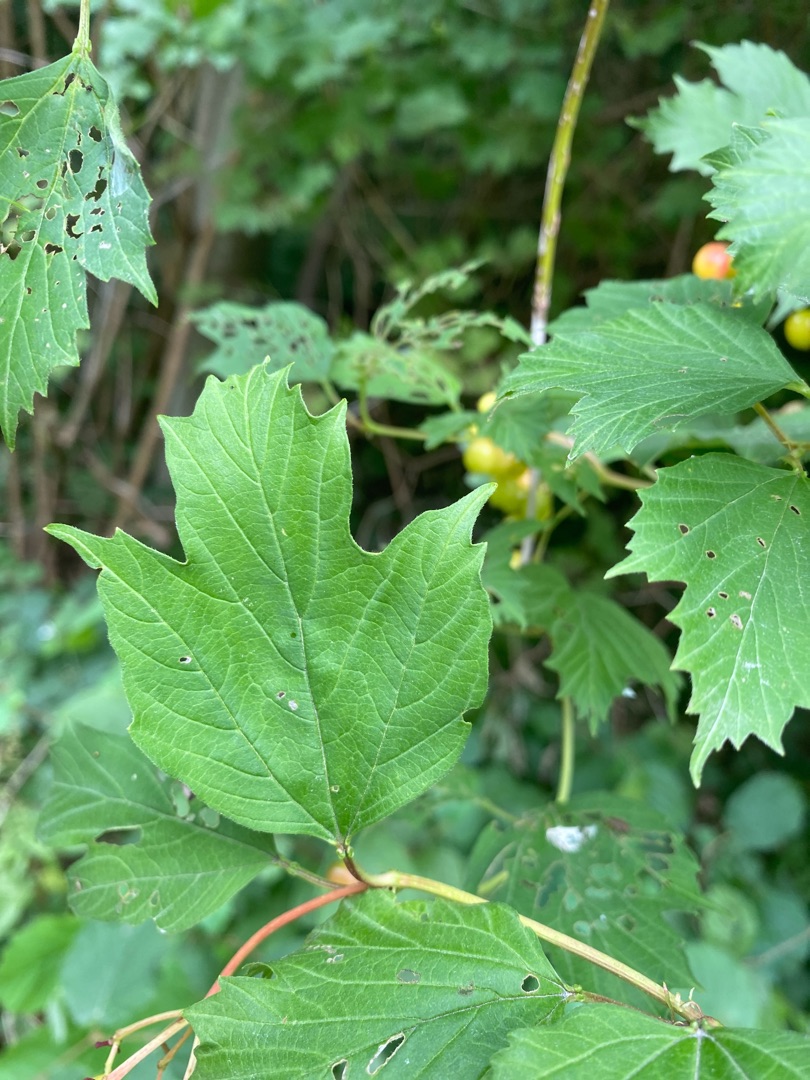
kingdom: Plantae
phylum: Tracheophyta
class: Magnoliopsida
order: Dipsacales
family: Viburnaceae
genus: Viburnum
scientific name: Viburnum opulus
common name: Kvalkved
